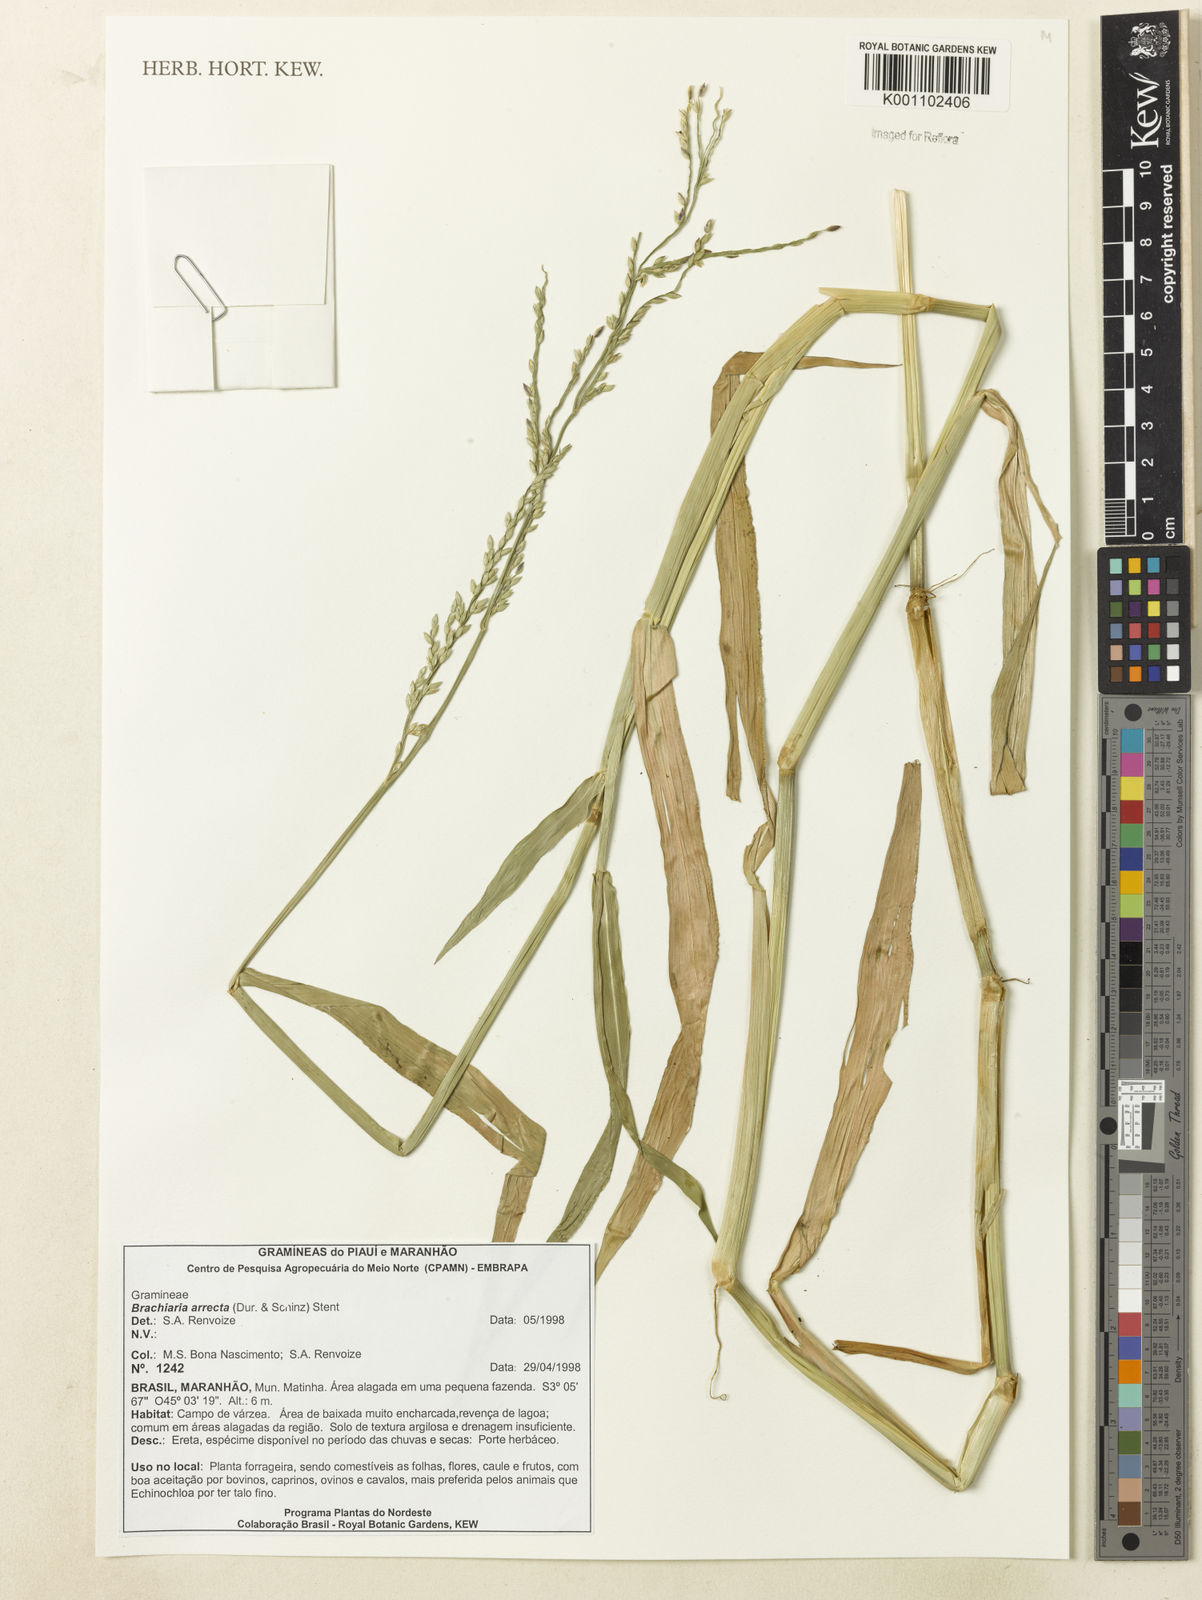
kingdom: Plantae
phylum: Tracheophyta
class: Liliopsida
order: Poales
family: Poaceae
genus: Urochloa
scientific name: Urochloa arrecta
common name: African signalgrass
